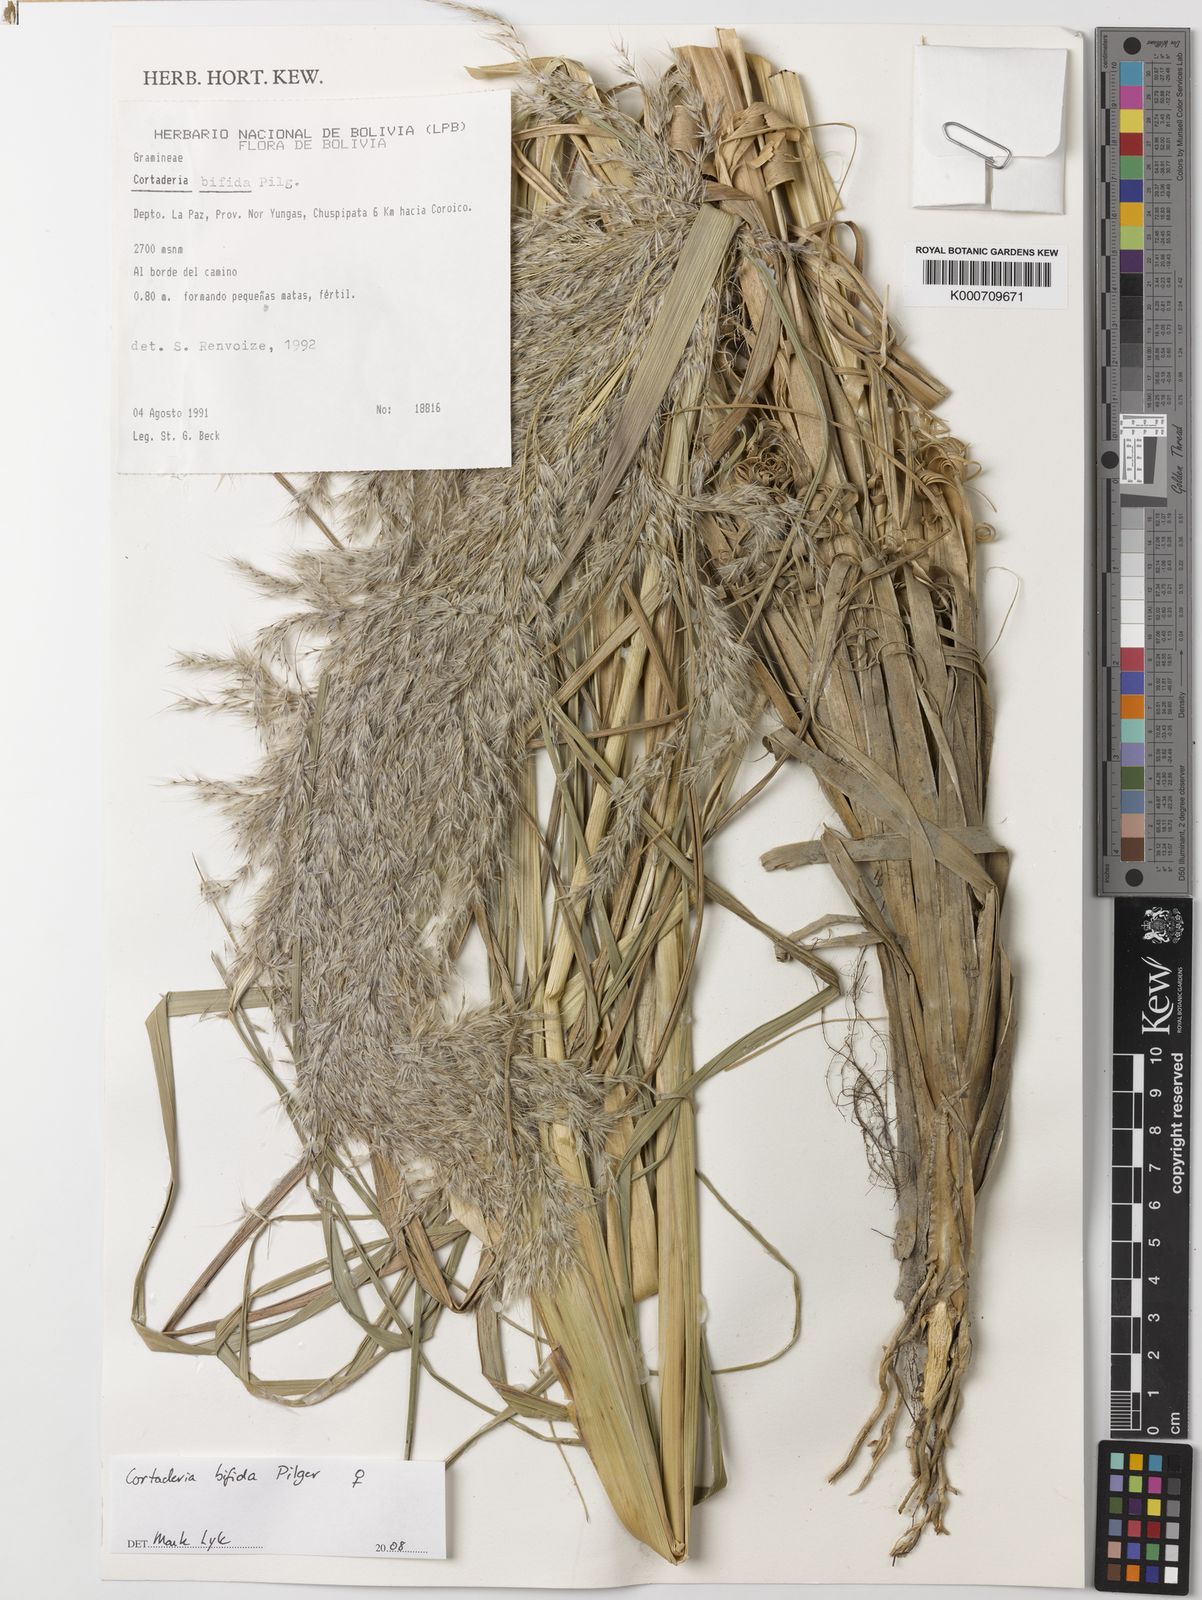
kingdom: Plantae
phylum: Tracheophyta
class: Liliopsida
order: Poales
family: Poaceae
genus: Cortaderia
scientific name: Cortaderia bifida
